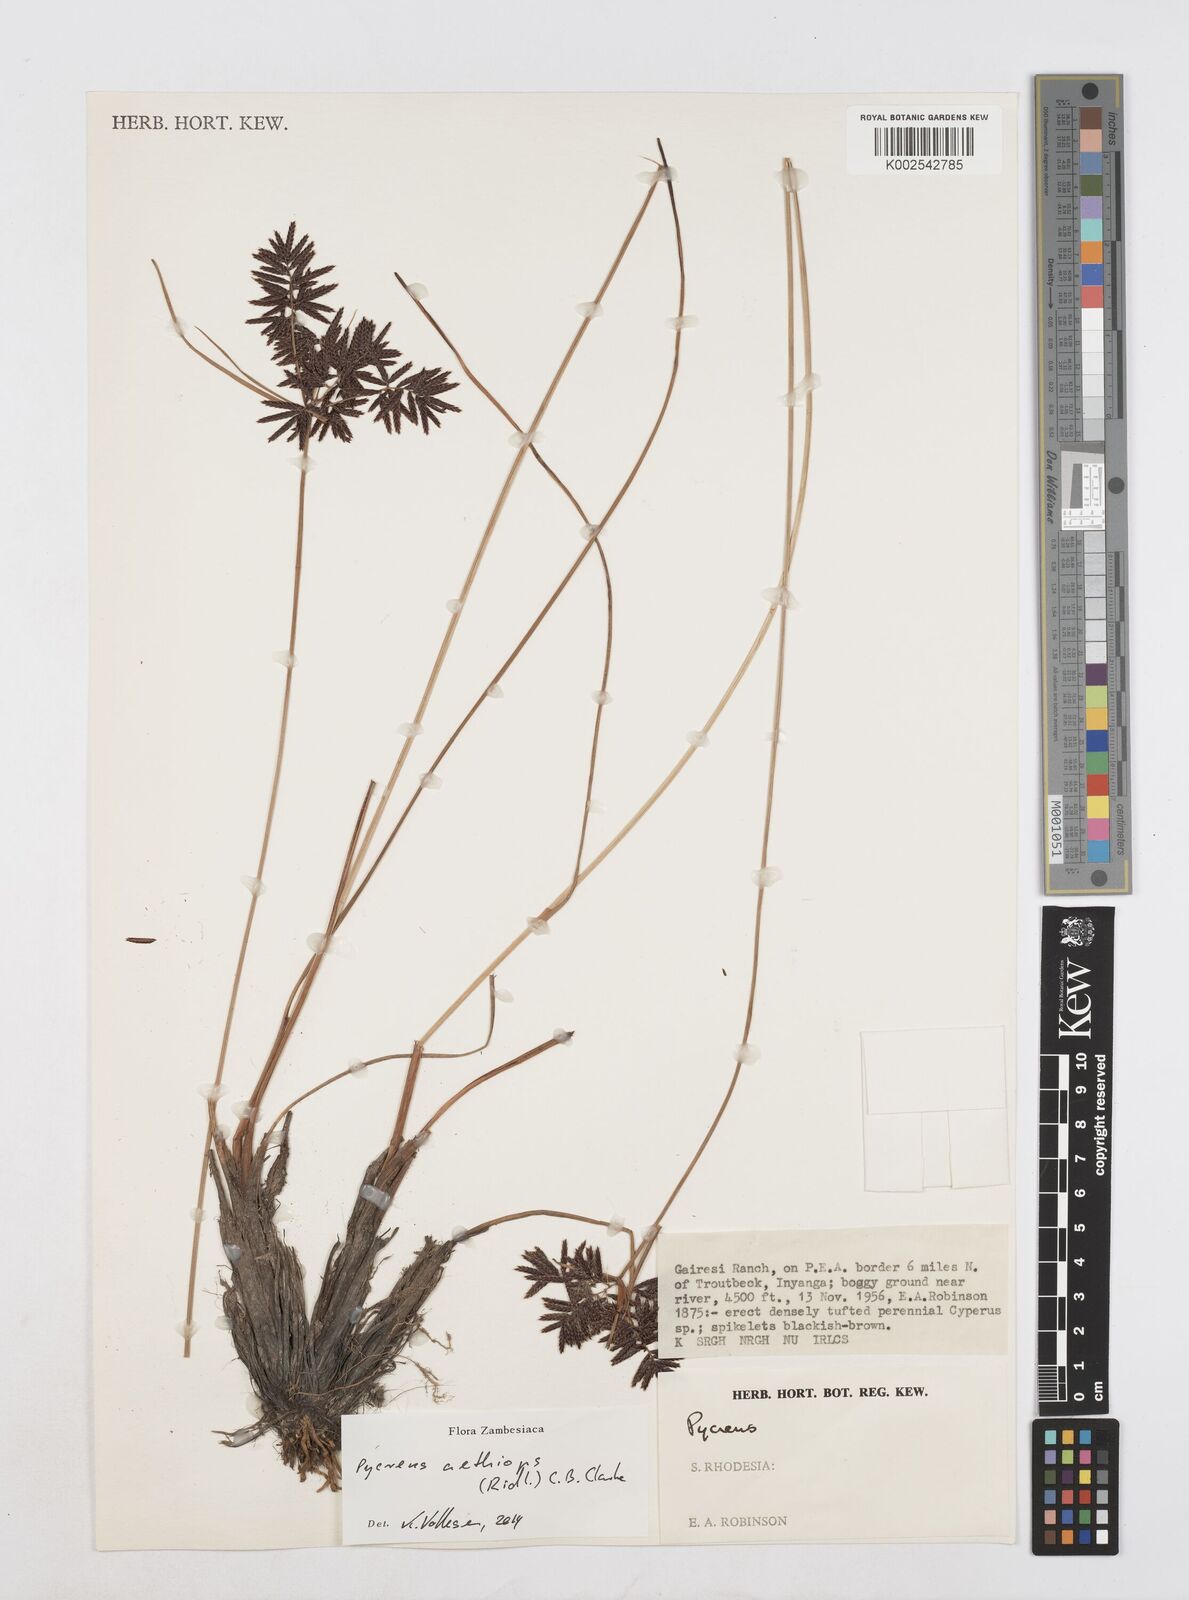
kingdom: Plantae
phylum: Tracheophyta
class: Liliopsida
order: Poales
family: Cyperaceae
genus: Cyperus
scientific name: Cyperus aethiops
